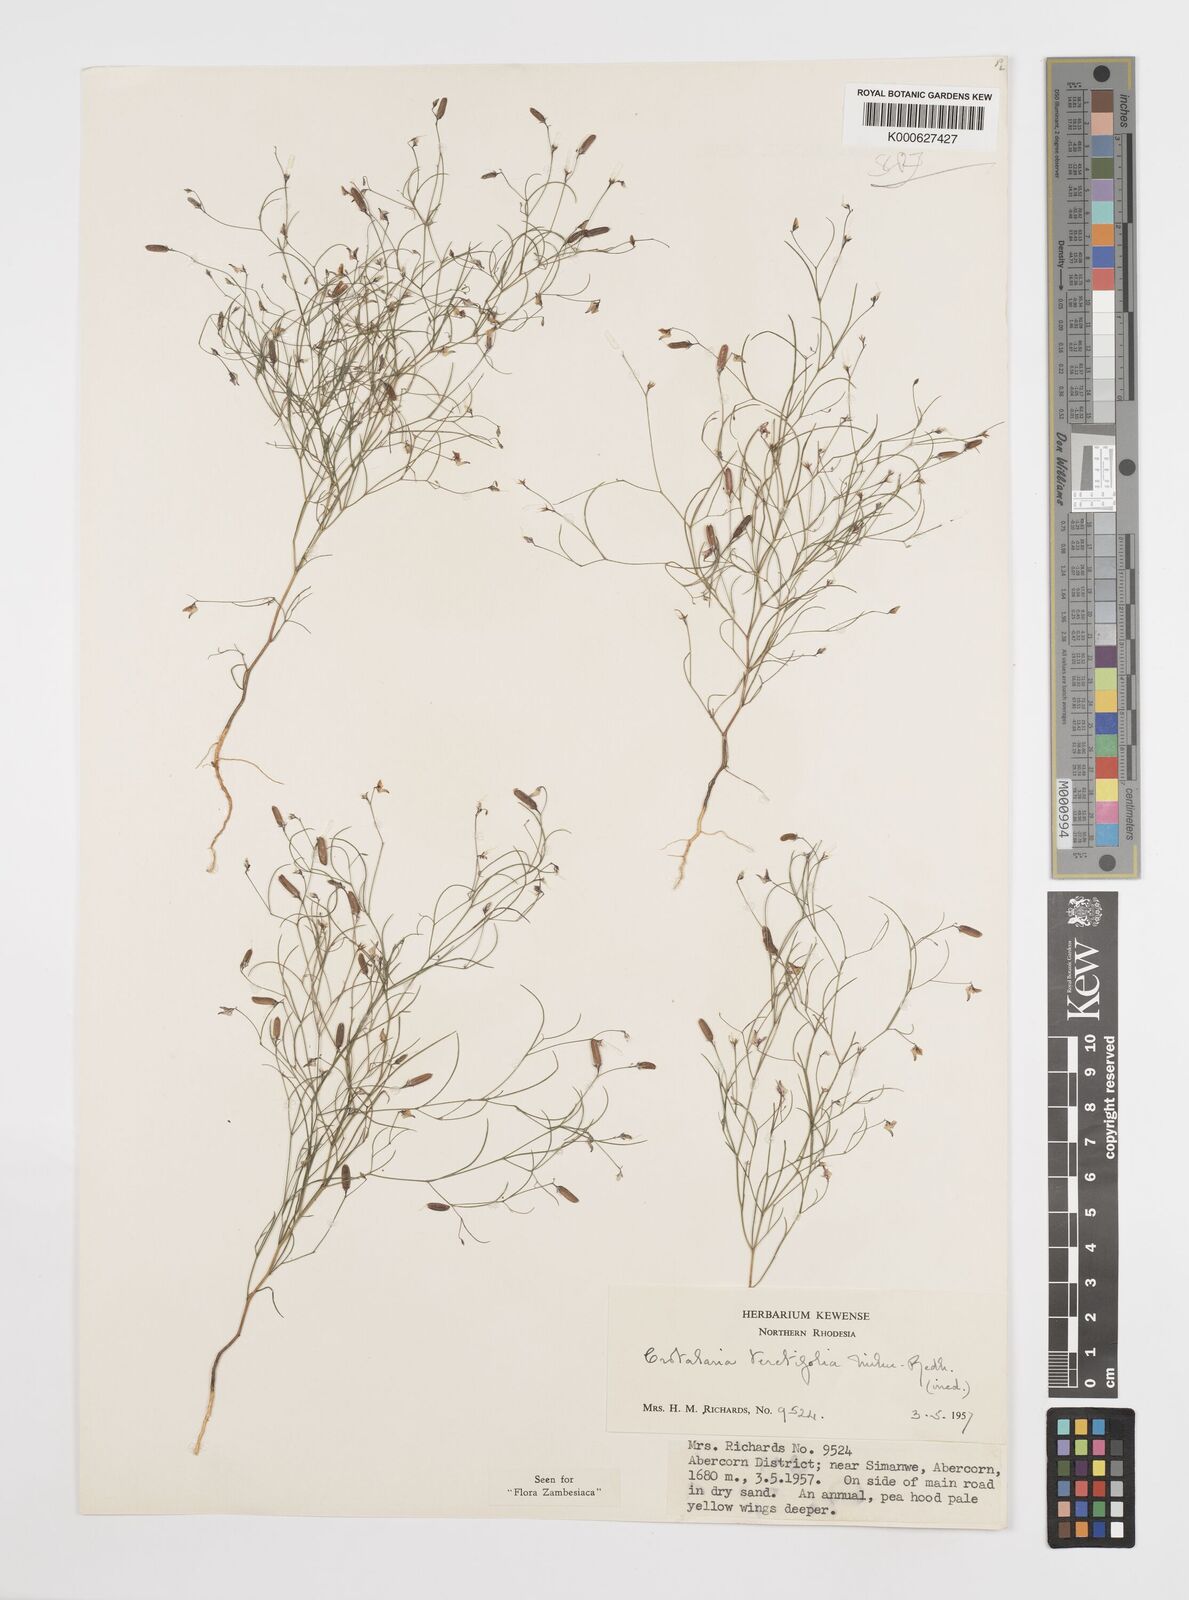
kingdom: Plantae
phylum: Tracheophyta
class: Magnoliopsida
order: Fabales
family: Fabaceae
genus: Crotalaria
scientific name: Crotalaria teretifolia
